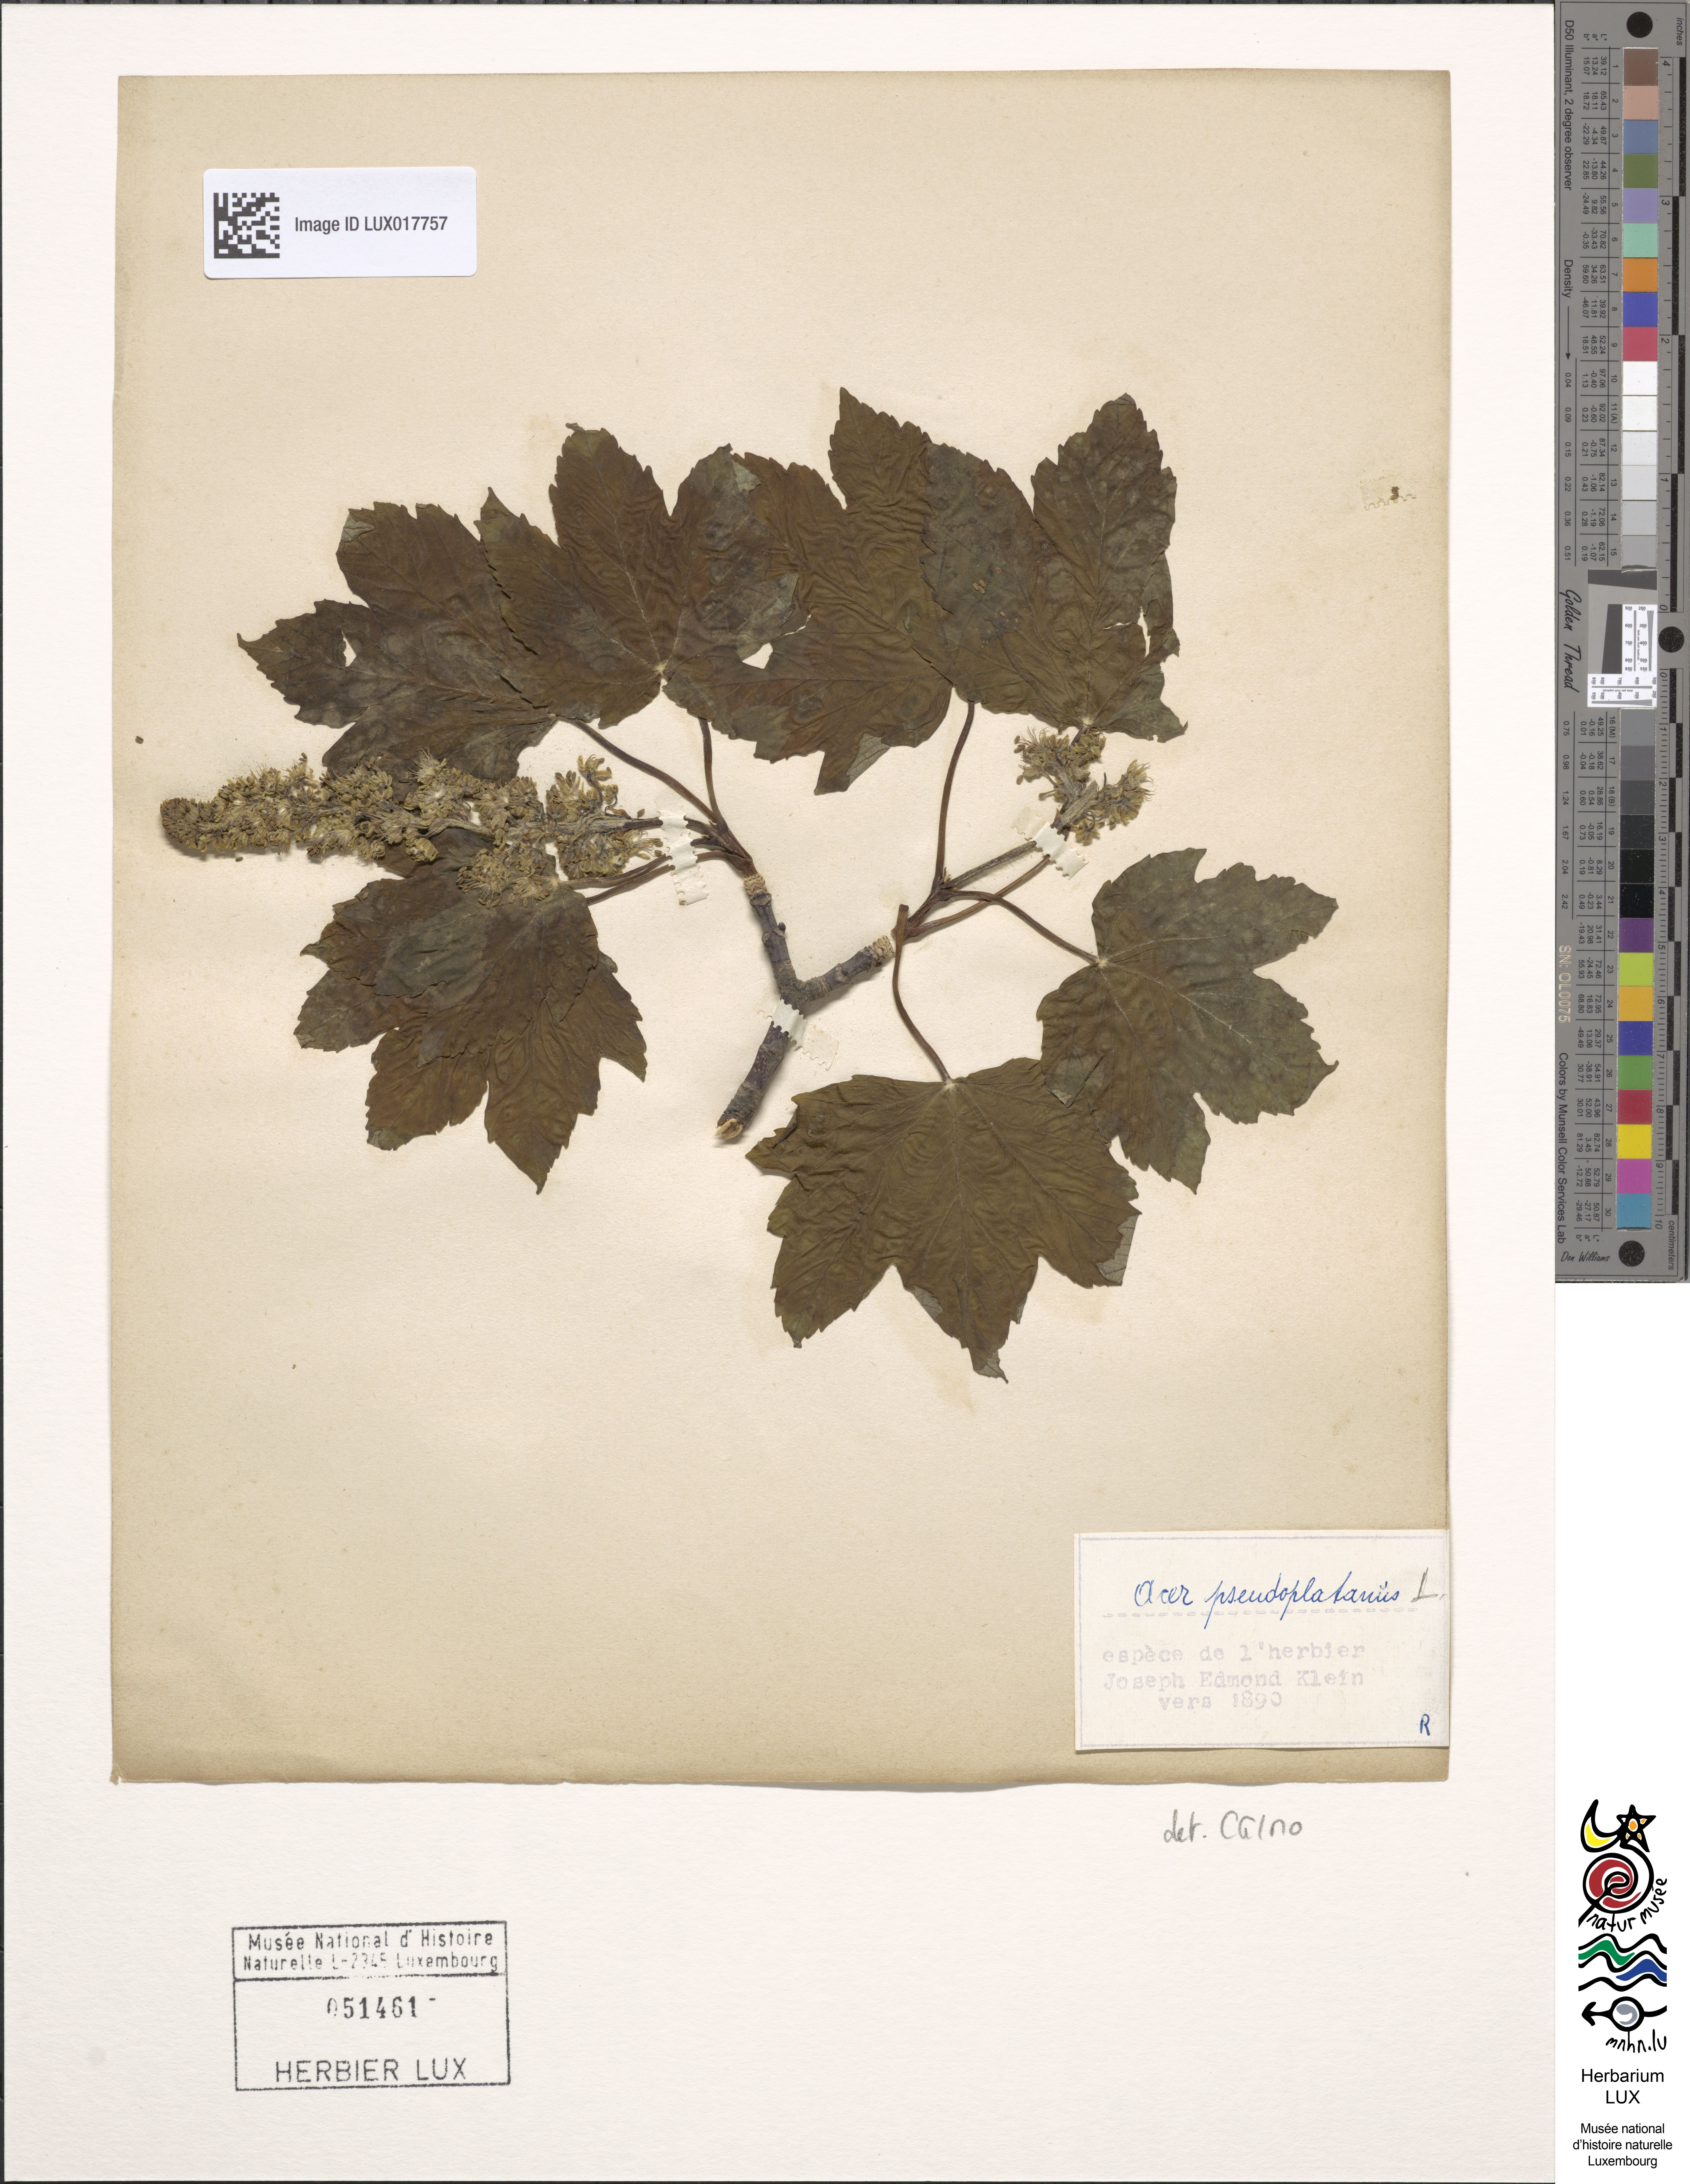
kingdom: Plantae
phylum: Tracheophyta
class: Magnoliopsida
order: Sapindales
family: Sapindaceae
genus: Acer
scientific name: Acer pseudoplatanus
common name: Sycamore
